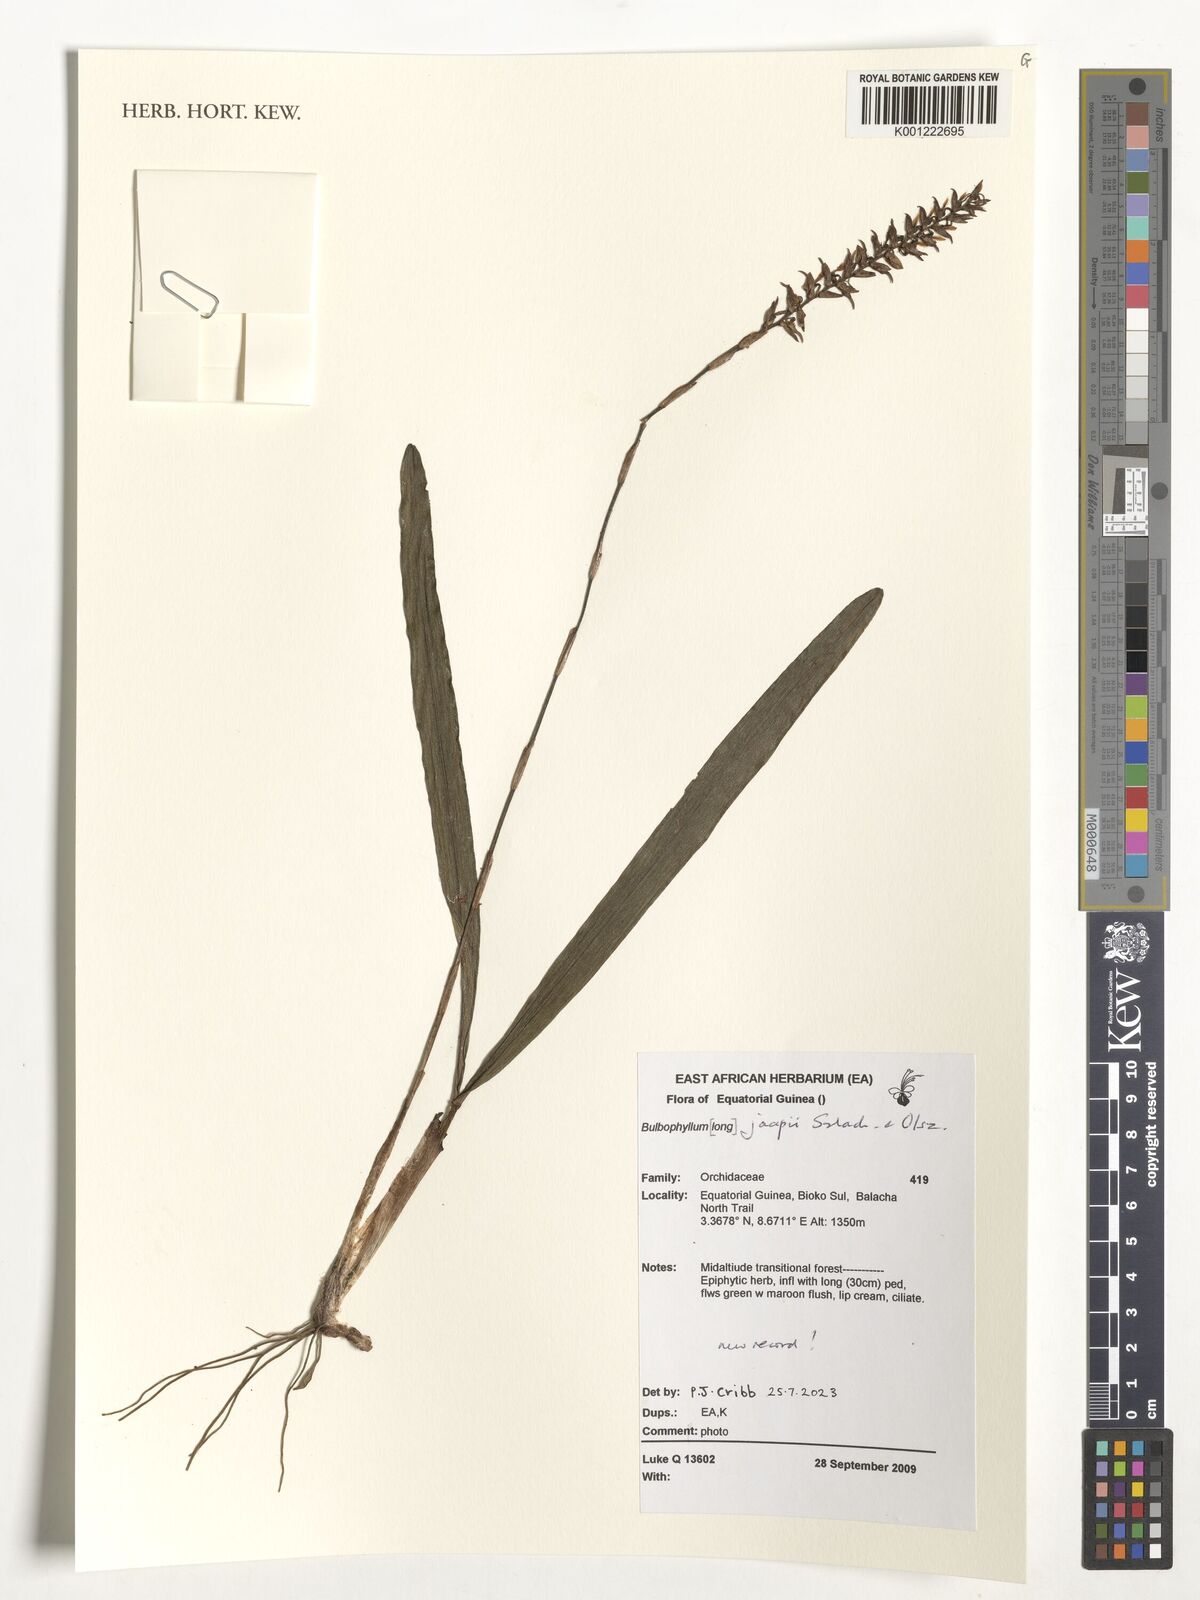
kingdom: Plantae
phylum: Tracheophyta
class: Liliopsida
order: Asparagales
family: Orchidaceae
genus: Bulbophyllum
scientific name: Bulbophyllum jaapii
